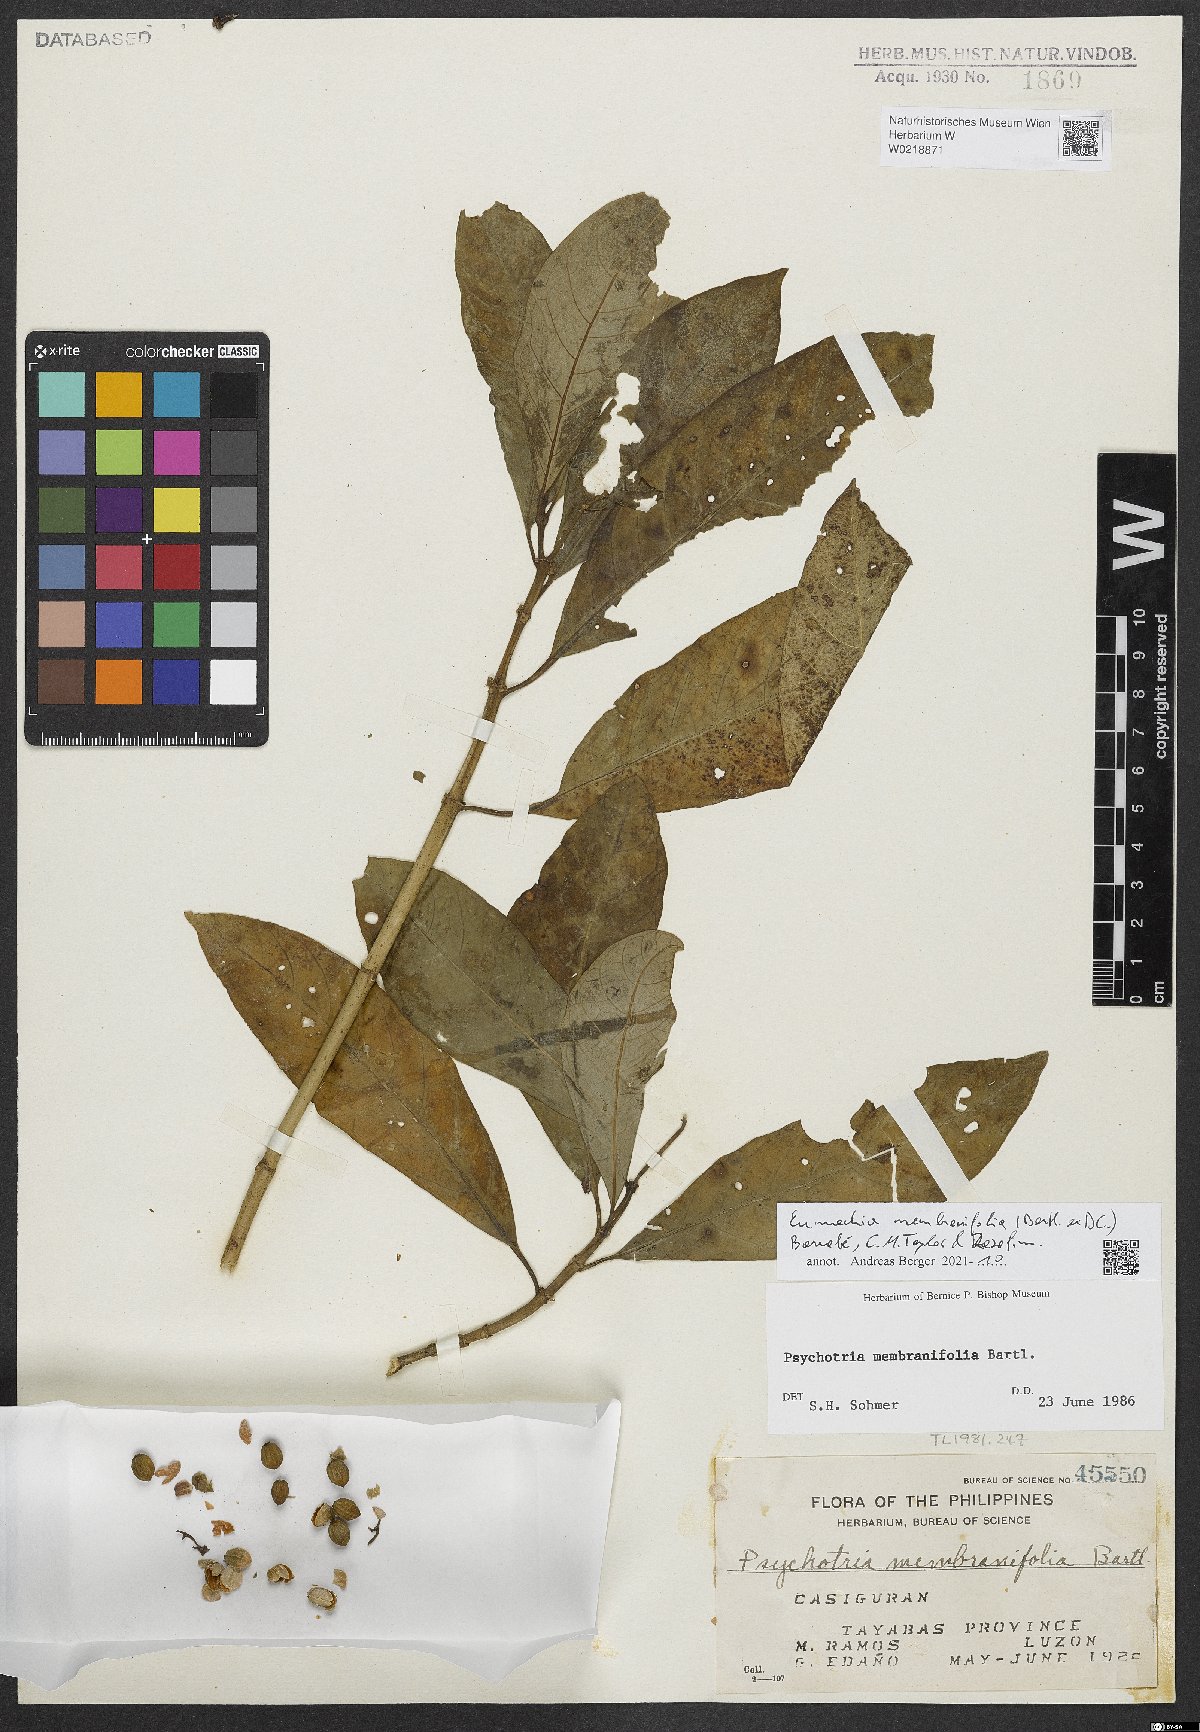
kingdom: Plantae
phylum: Tracheophyta
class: Magnoliopsida
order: Gentianales
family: Rubiaceae
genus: Eumachia
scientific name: Eumachia membranifolia
